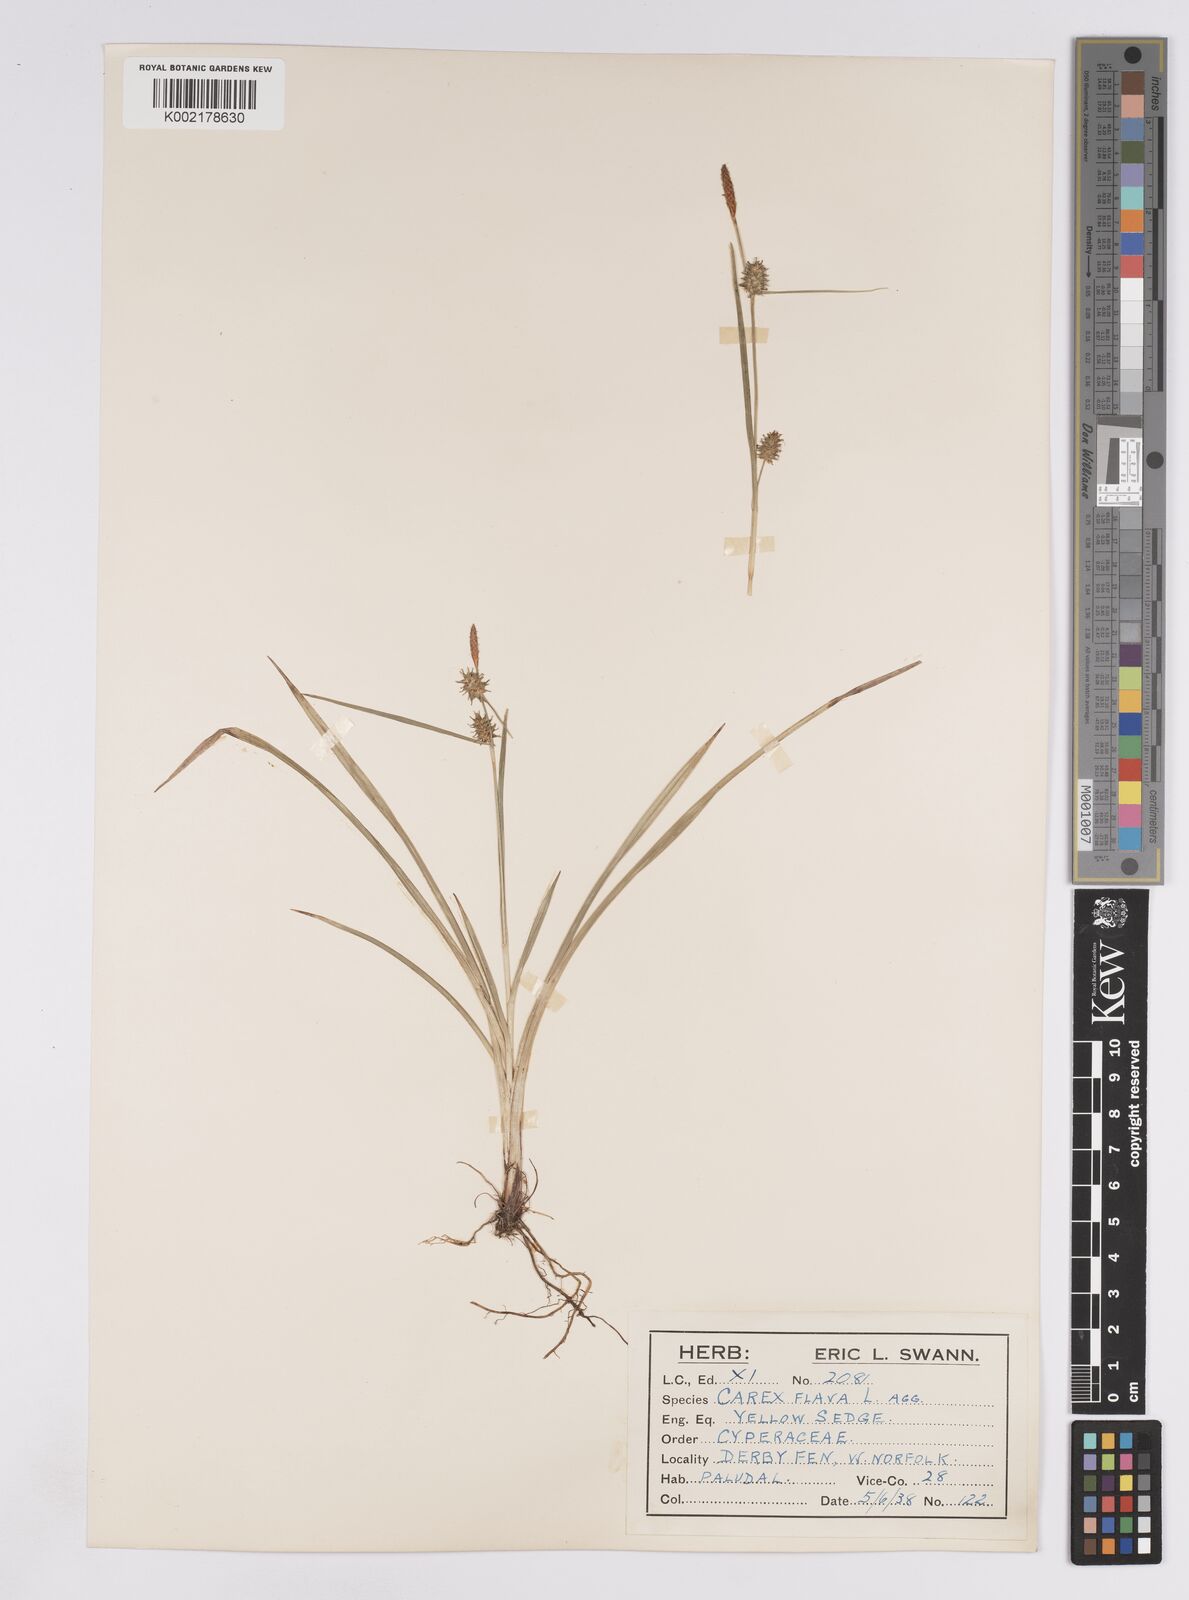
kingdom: Plantae
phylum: Tracheophyta
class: Liliopsida
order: Poales
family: Cyperaceae
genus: Carex
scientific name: Carex lepidocarpa
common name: Long-stalked yellow-sedge
